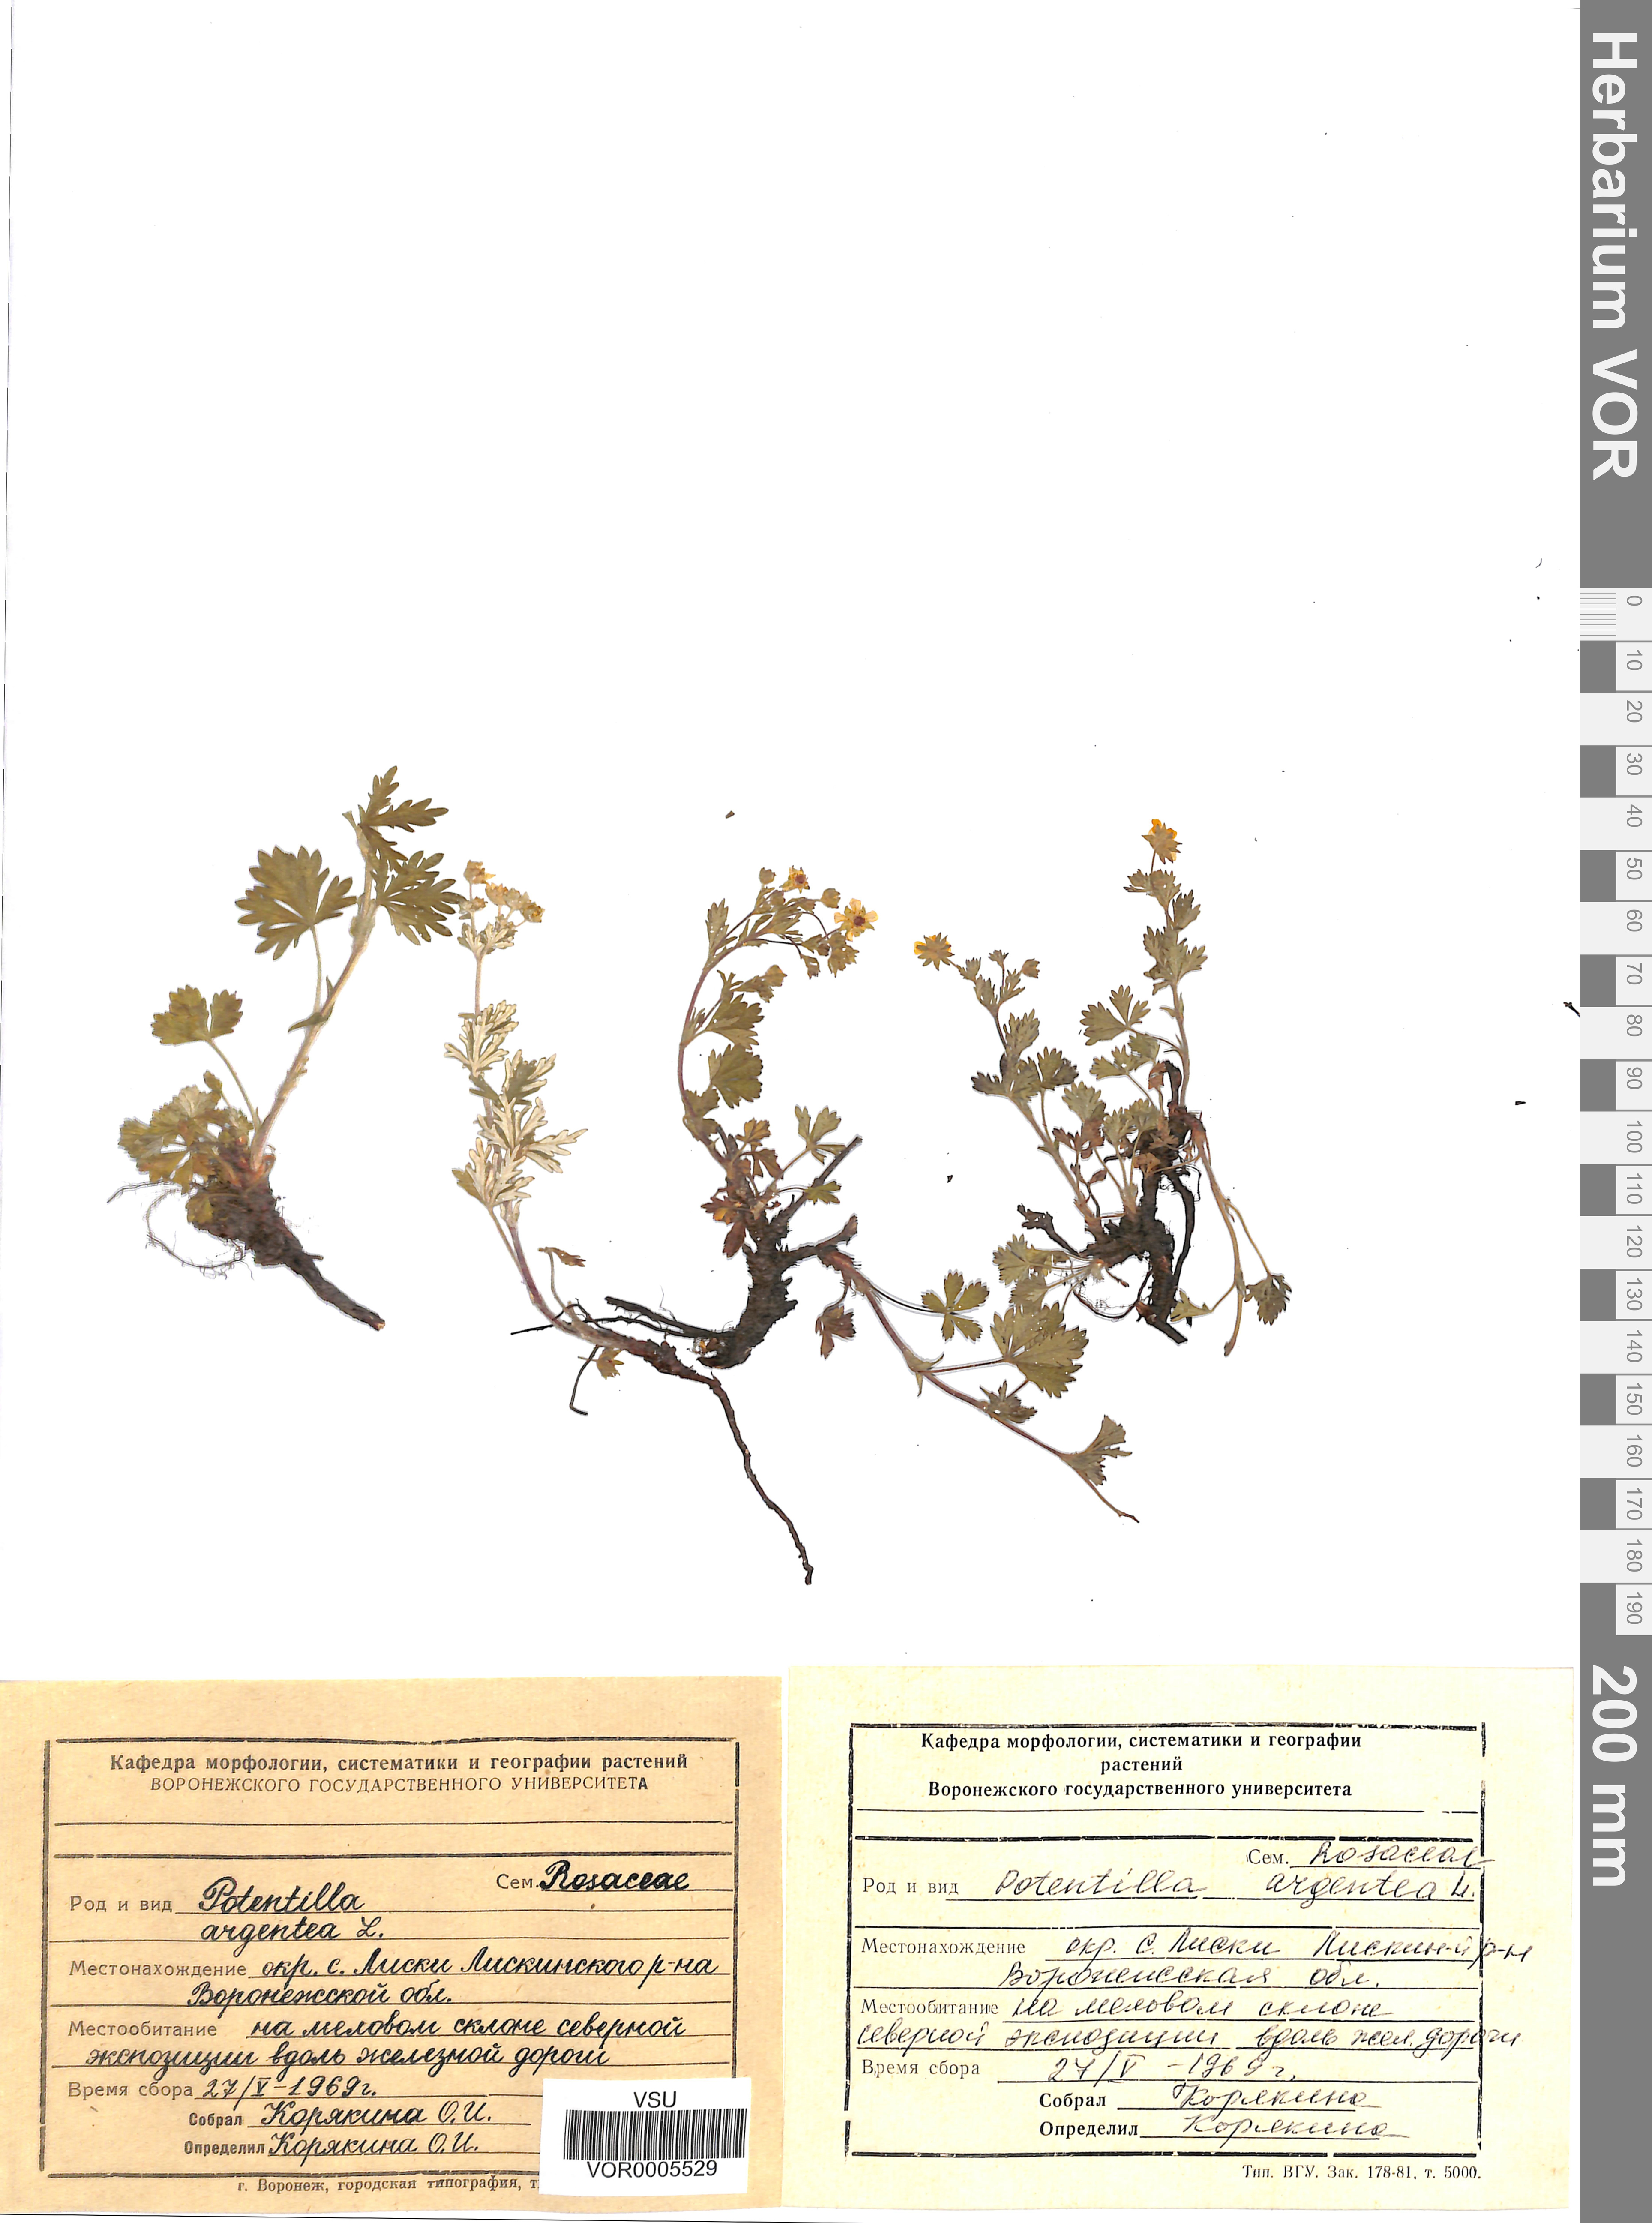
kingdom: Plantae
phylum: Tracheophyta
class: Magnoliopsida
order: Rosales
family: Rosaceae
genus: Potentilla
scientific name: Potentilla collina
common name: Palmleaf cinquefoil
